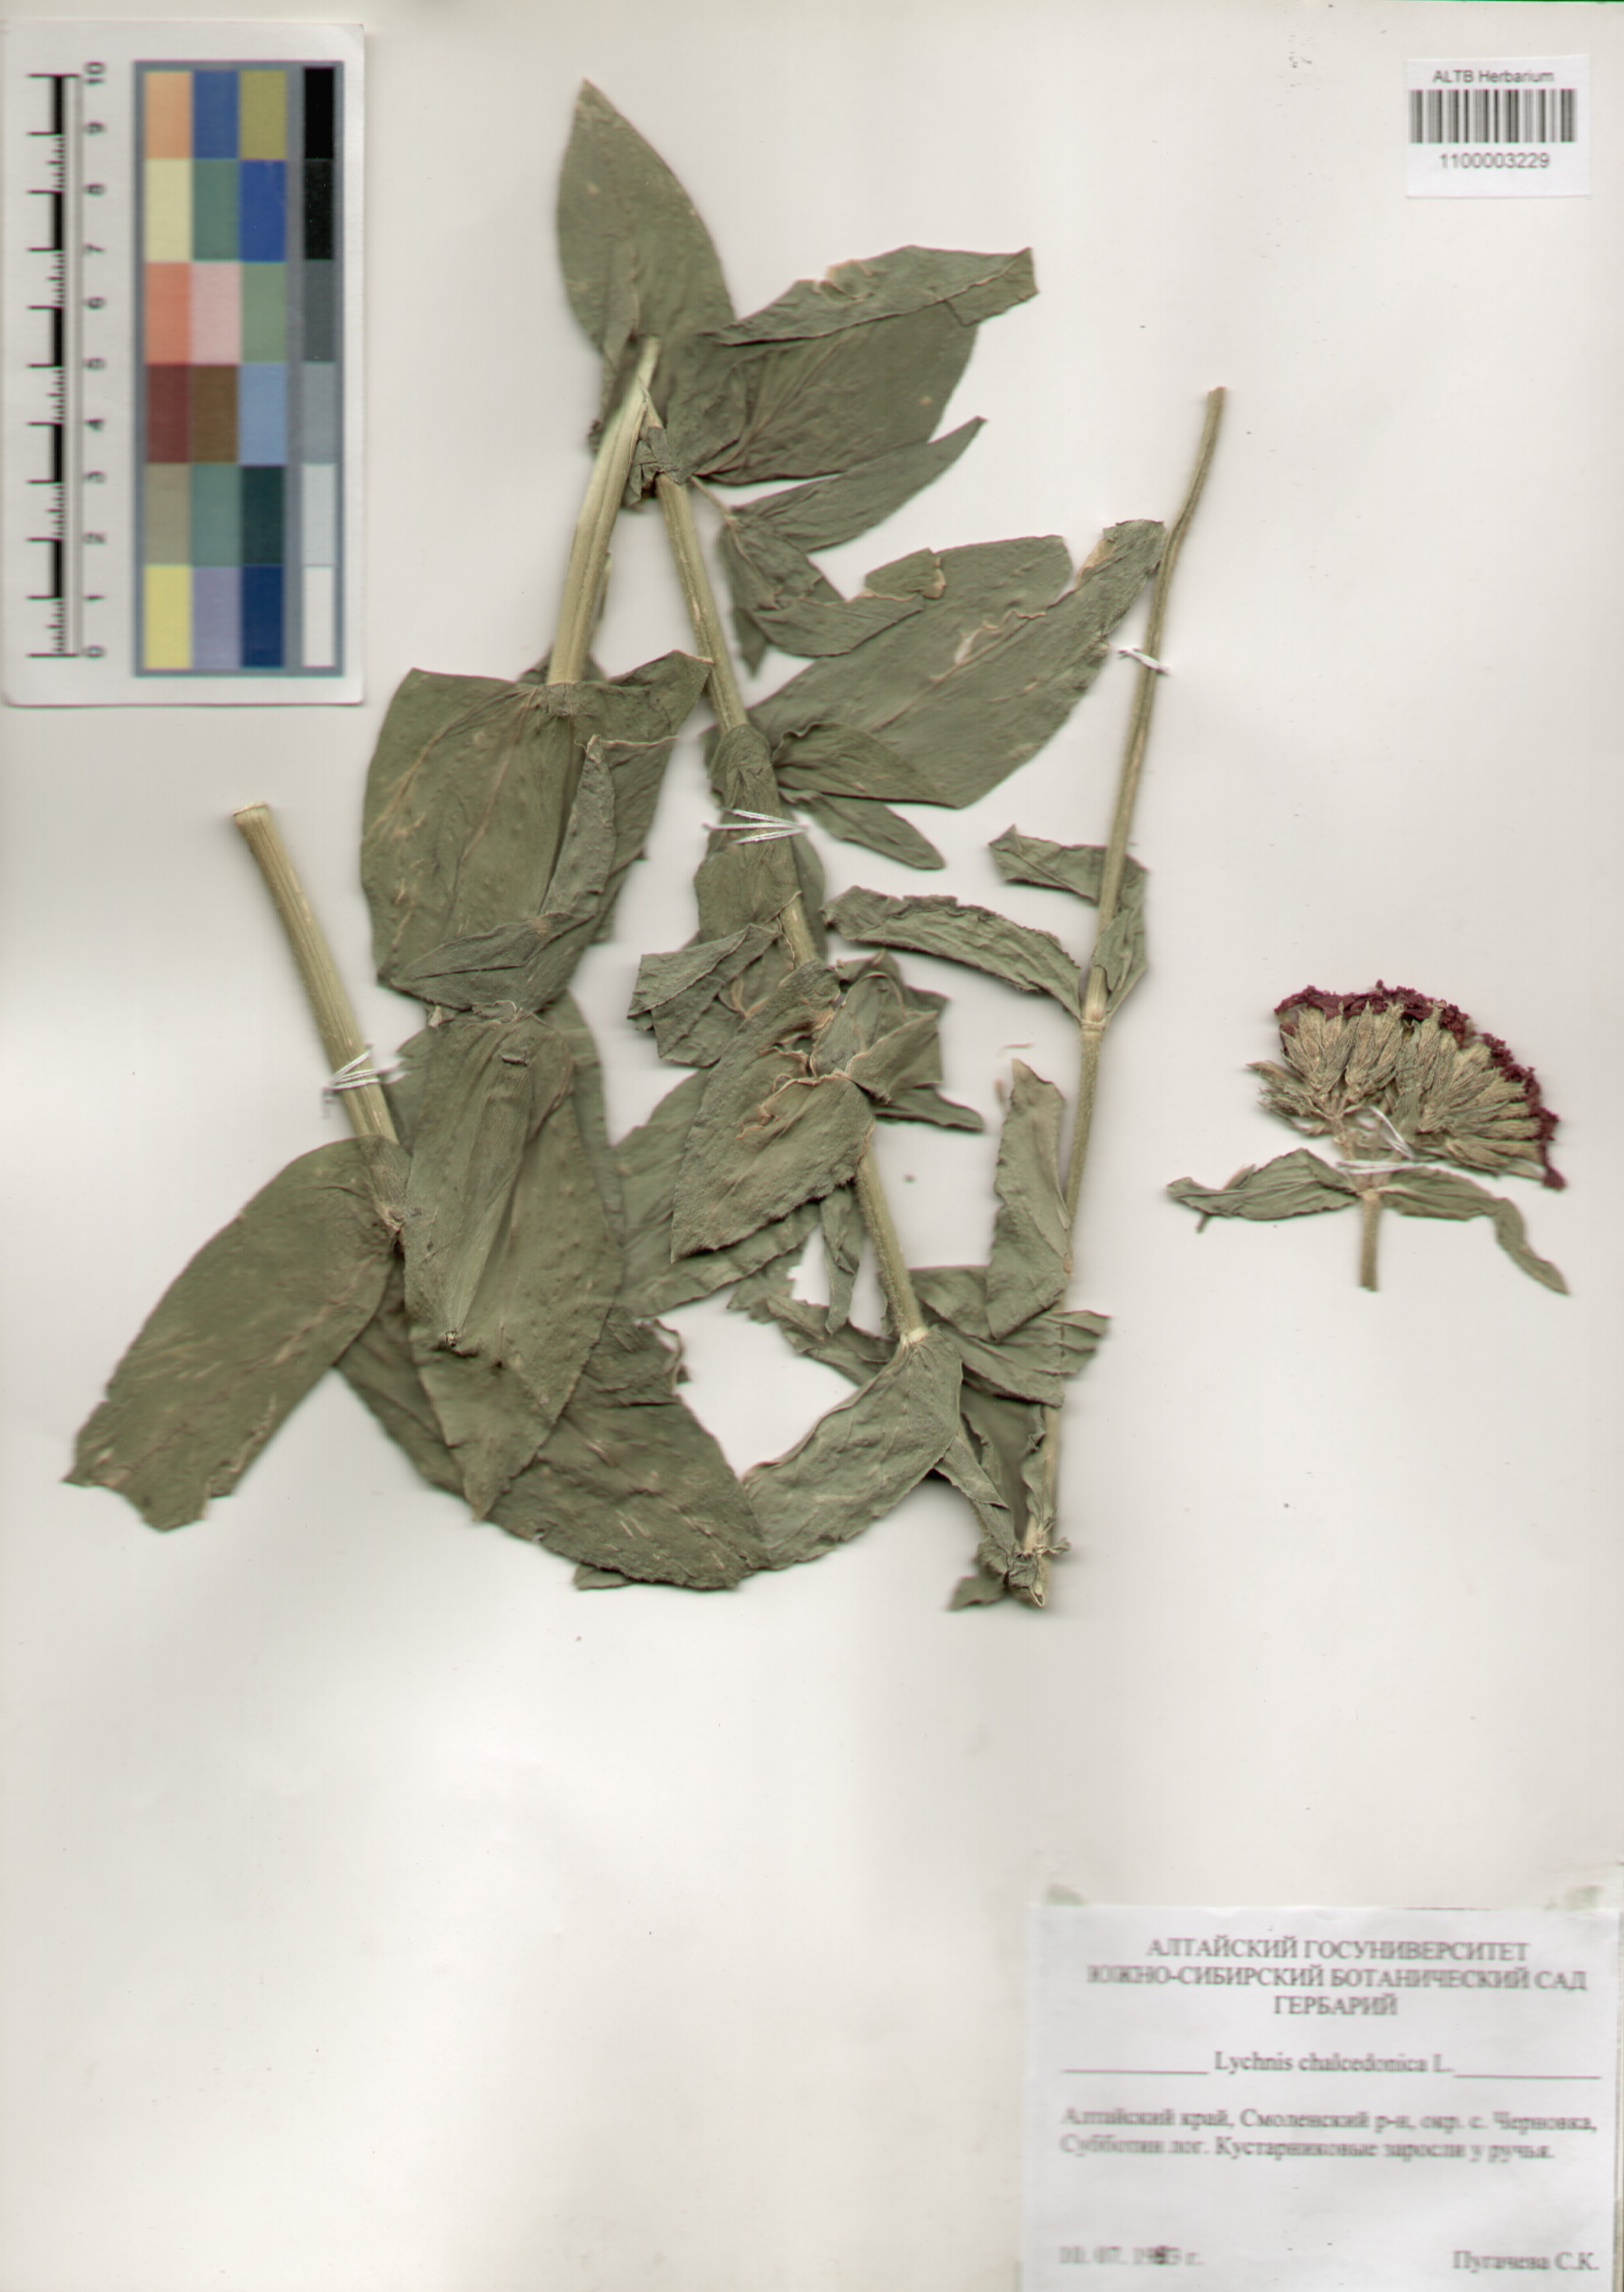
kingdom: Plantae
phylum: Tracheophyta
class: Magnoliopsida
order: Caryophyllales
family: Caryophyllaceae
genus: Silene
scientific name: Silene chalcedonica
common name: Maltese-cross
